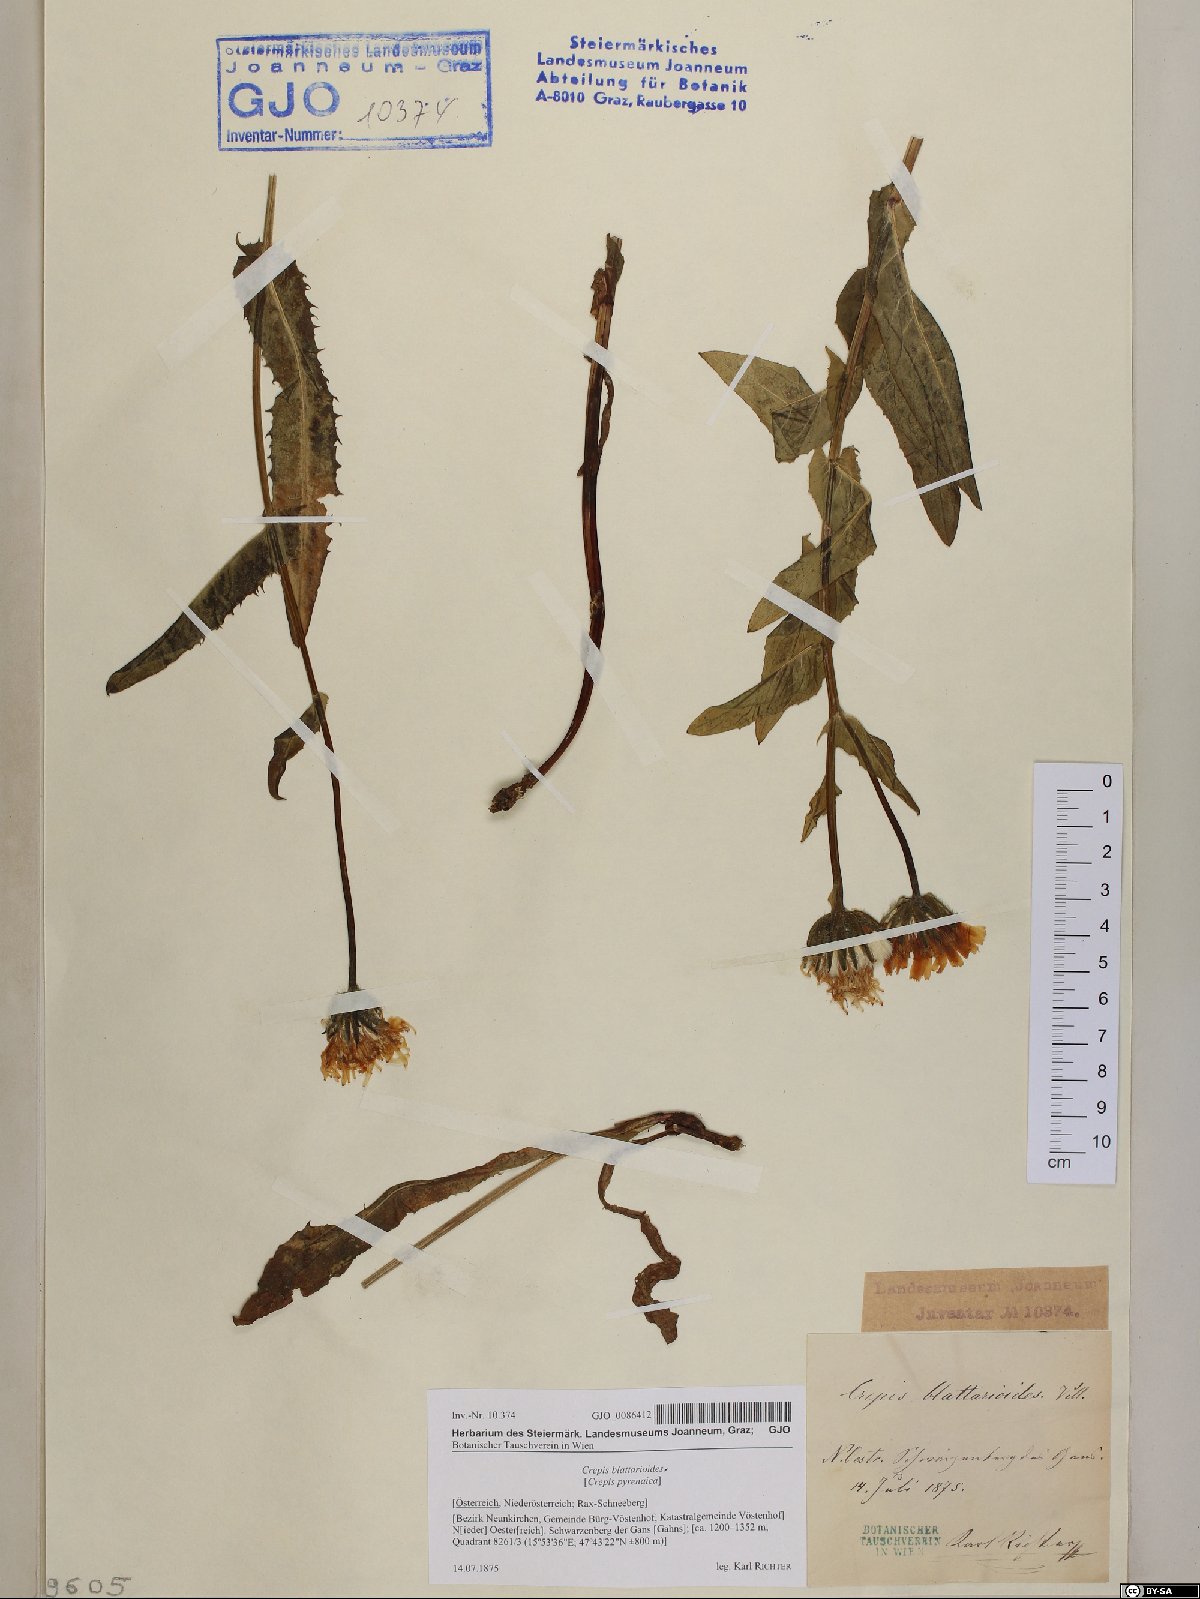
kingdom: Plantae
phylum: Tracheophyta
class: Magnoliopsida
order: Asterales
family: Asteraceae
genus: Crepis
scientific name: Crepis blattarioides
